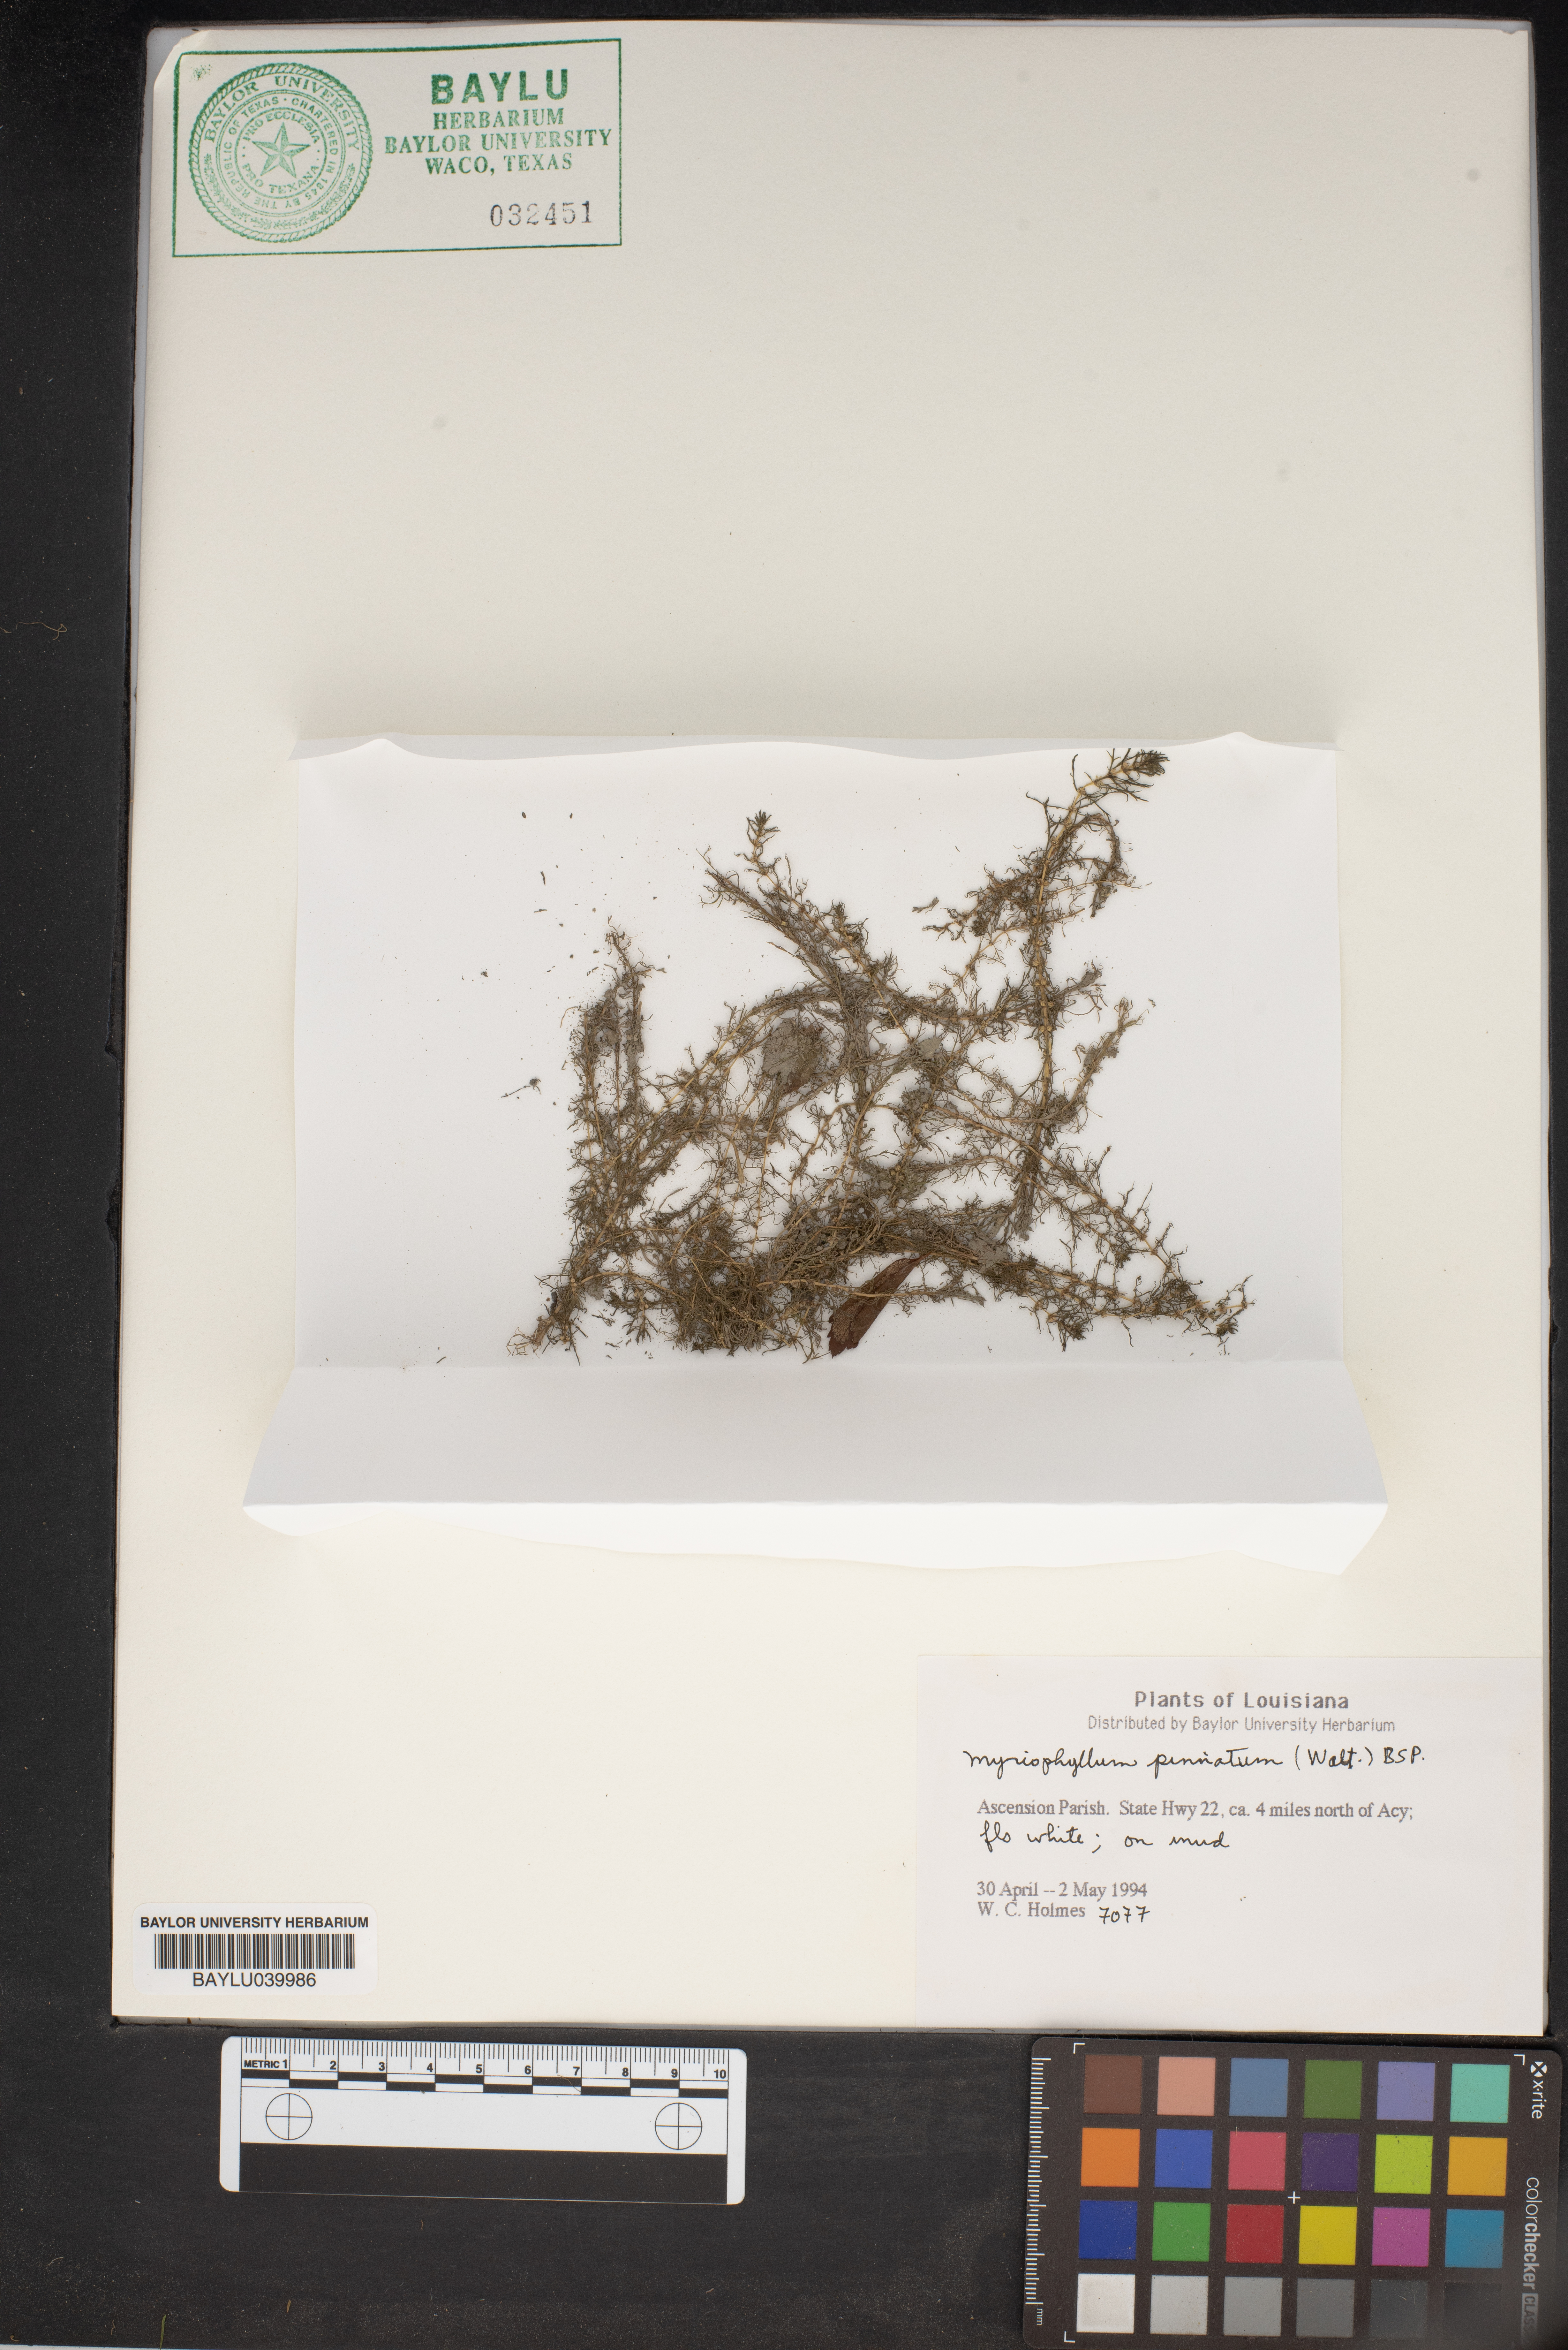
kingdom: Plantae
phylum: Tracheophyta
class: Magnoliopsida
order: Saxifragales
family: Haloragaceae
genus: Myriophyllum
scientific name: Myriophyllum pinnatum
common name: Cut-leaved water-milfoil
